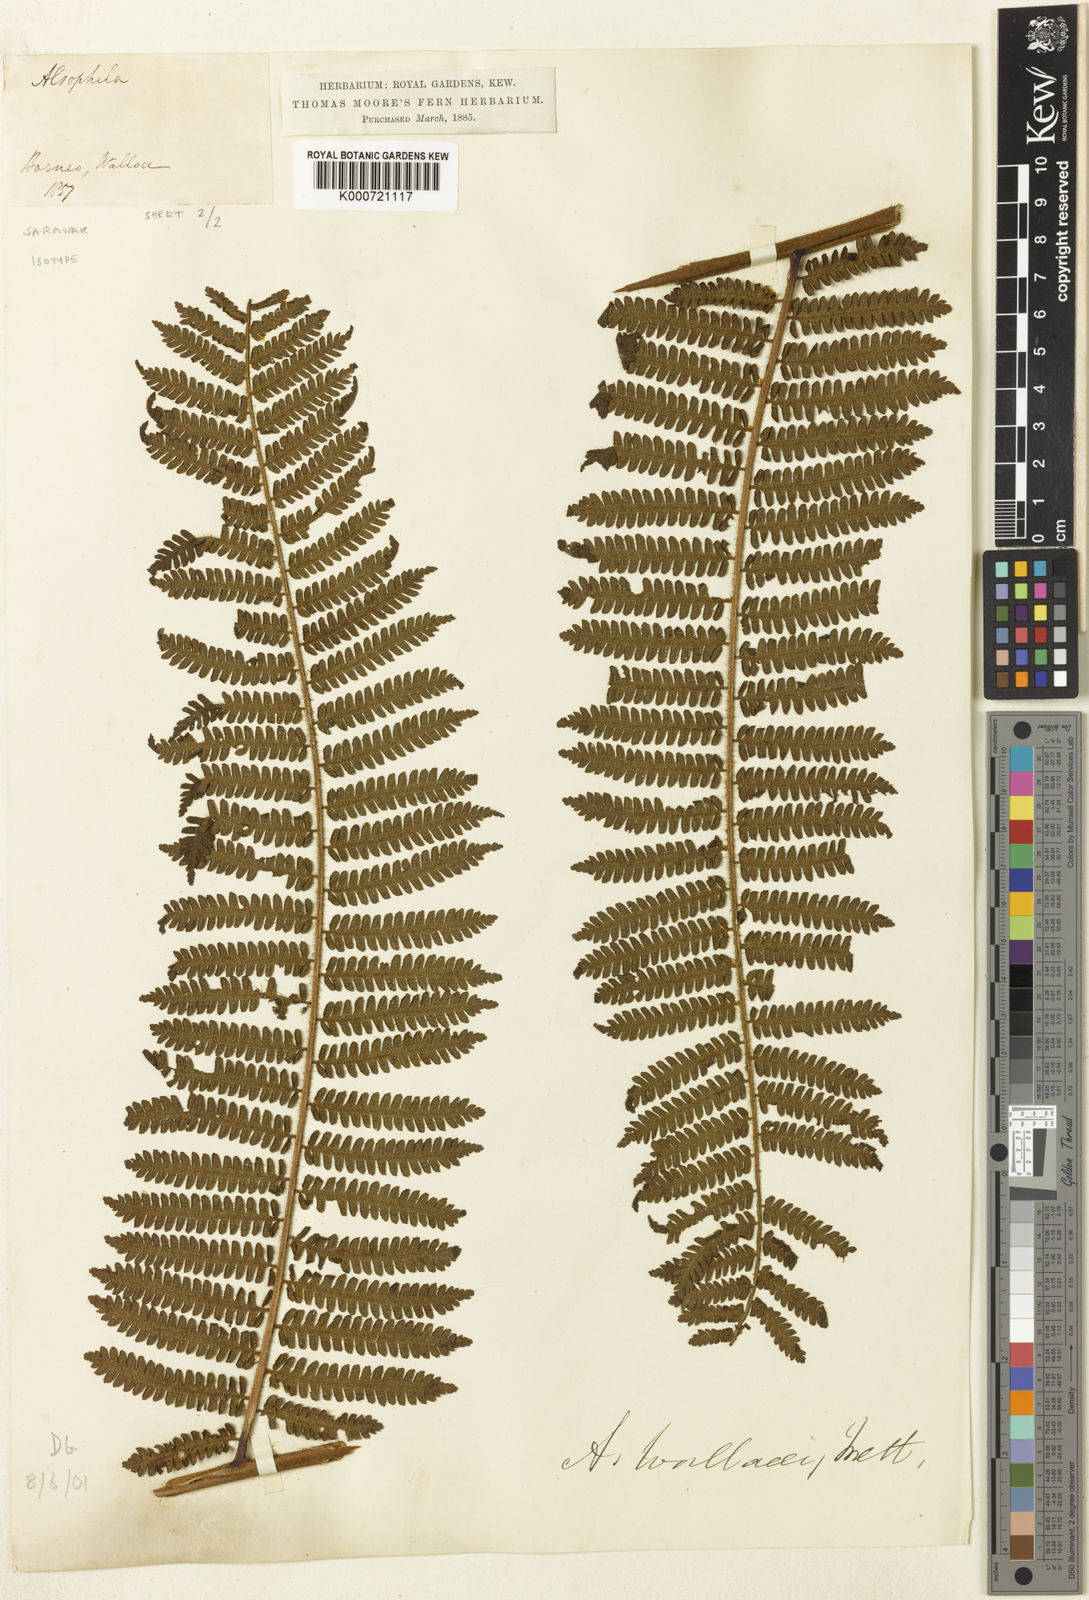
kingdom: Plantae
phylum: Tracheophyta
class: Polypodiopsida
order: Cyatheales
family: Cyatheaceae
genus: Sphaeropteris
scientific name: Sphaeropteris wallacei
